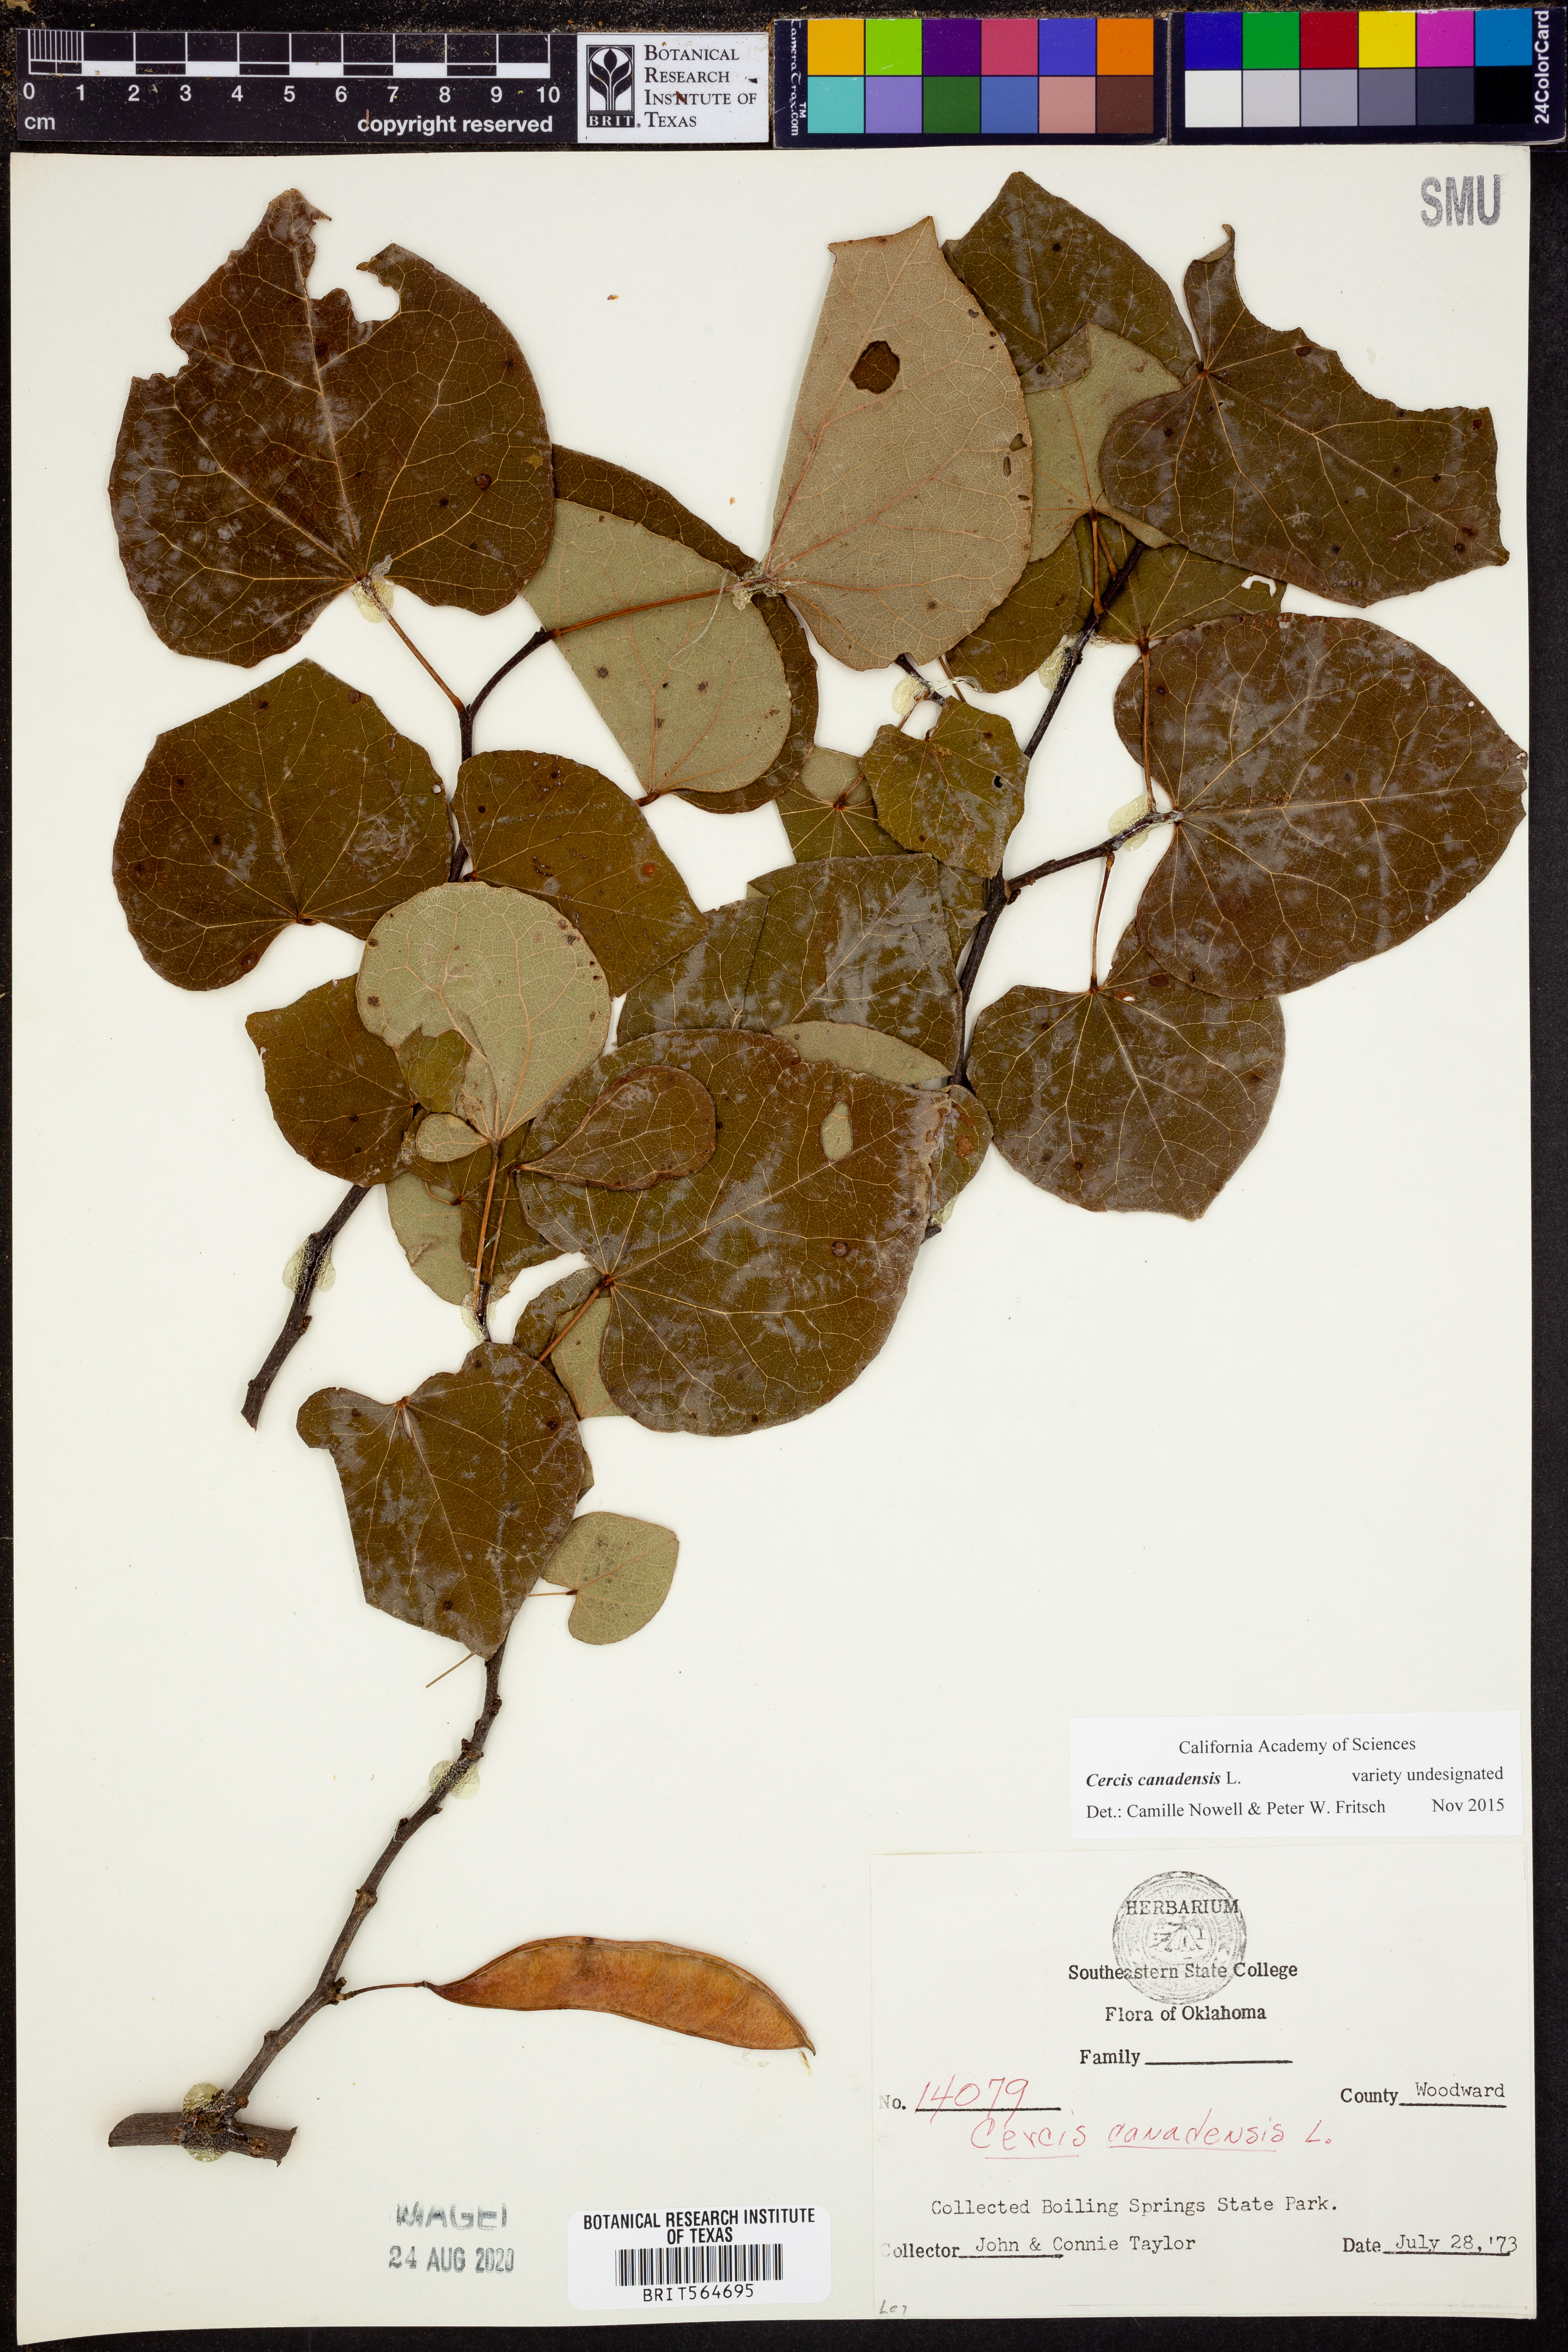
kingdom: Plantae
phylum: Tracheophyta
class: Magnoliopsida
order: Fabales
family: Fabaceae
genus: Cercis
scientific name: Cercis canadensis
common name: Eastern redbud
